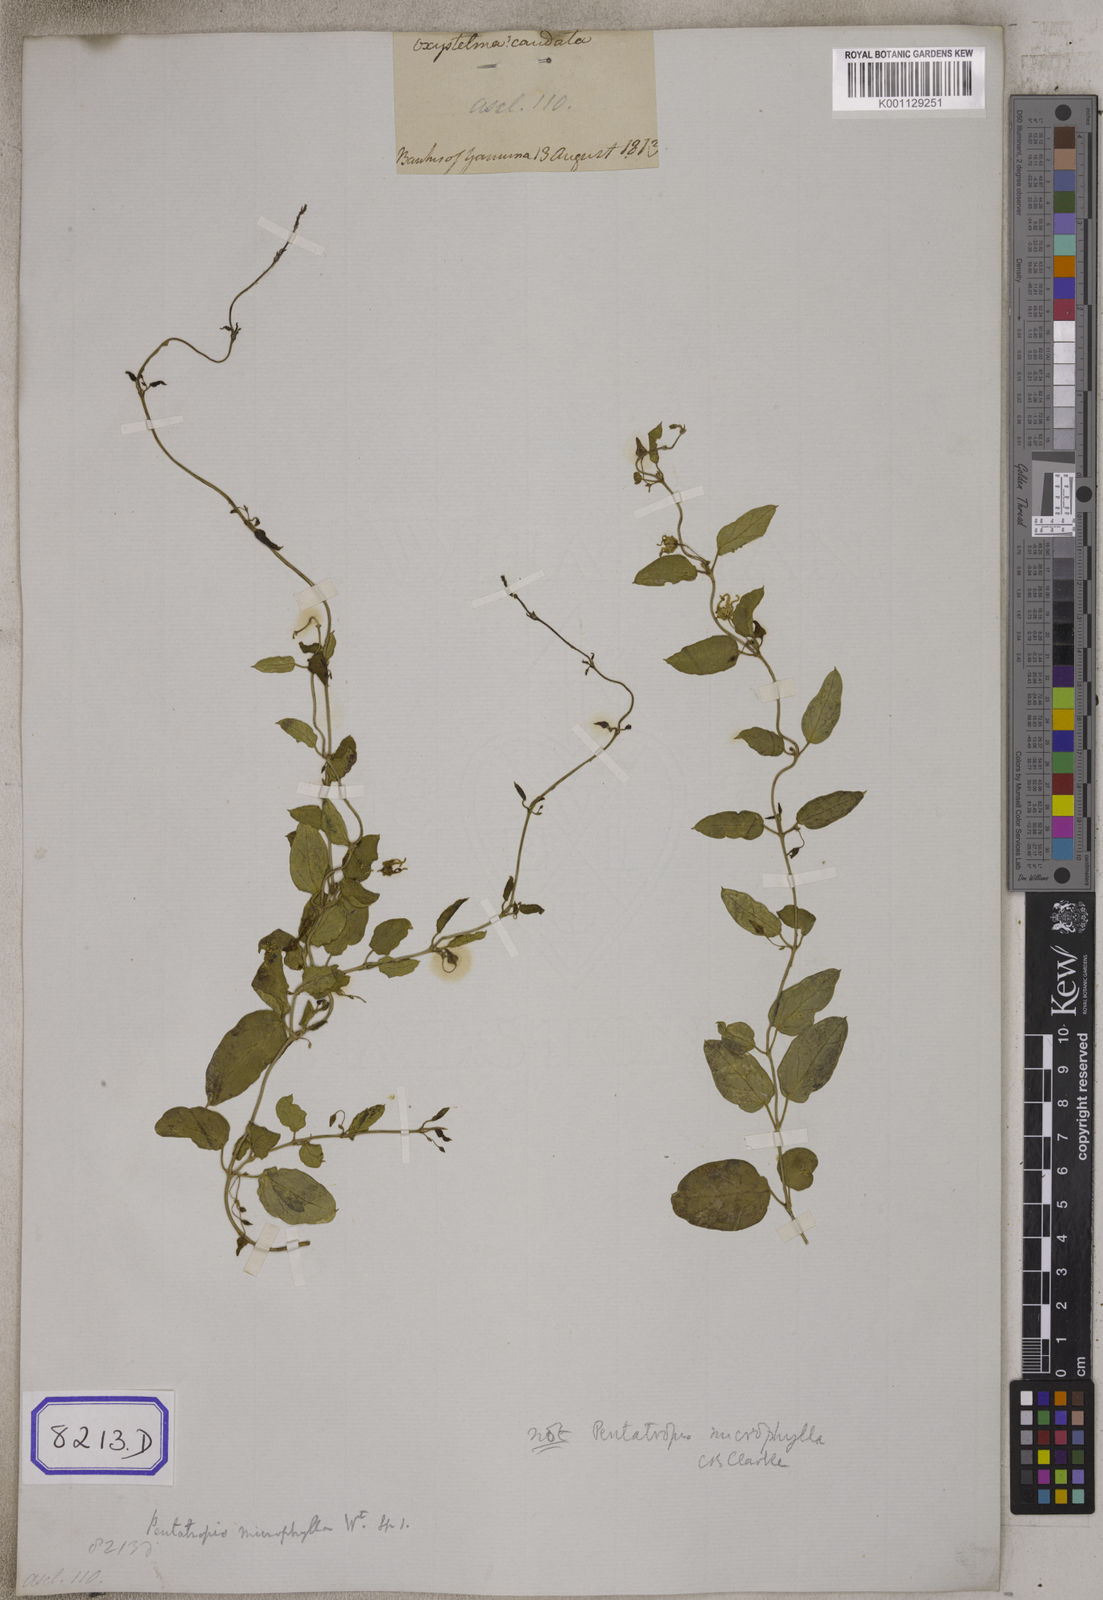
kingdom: Plantae
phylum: Tracheophyta
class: Magnoliopsida
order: Gentianales
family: Apocynaceae
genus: Pentatropis
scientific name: Pentatropis capensis
